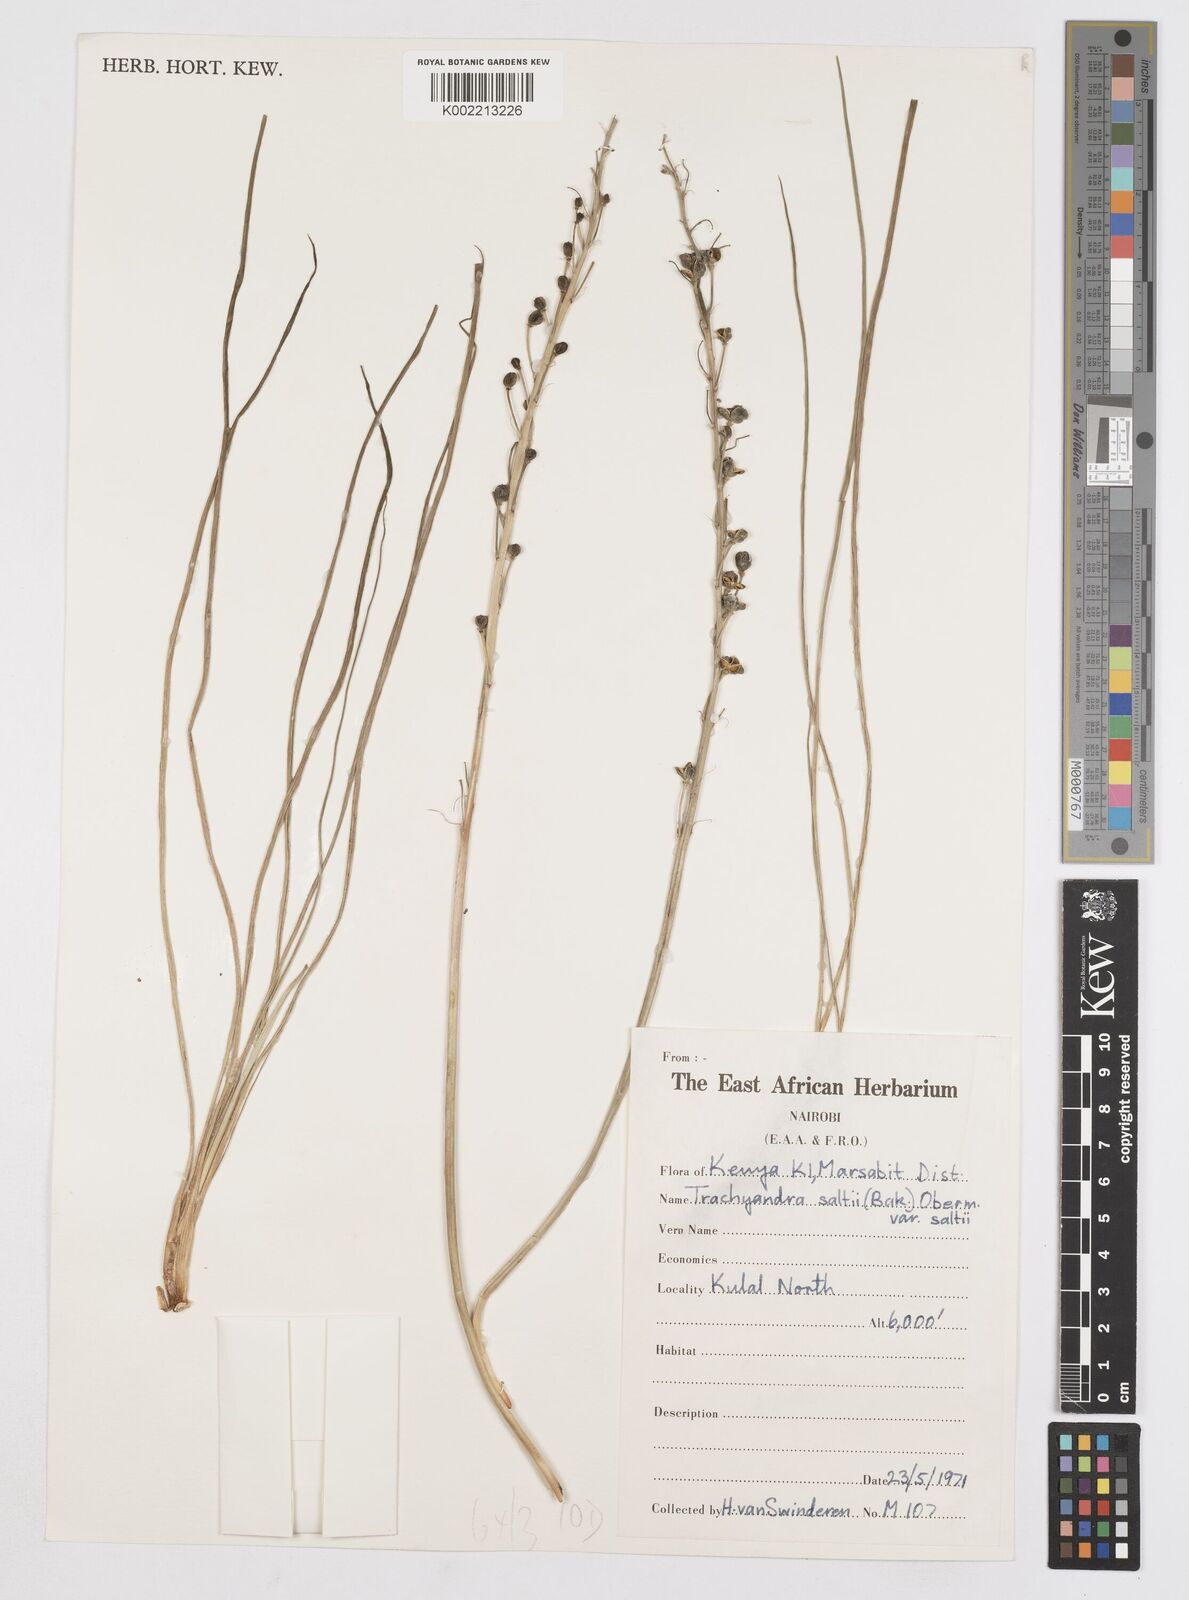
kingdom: Plantae
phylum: Tracheophyta
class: Liliopsida
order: Asparagales
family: Asphodelaceae
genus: Trachyandra
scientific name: Trachyandra saltii
